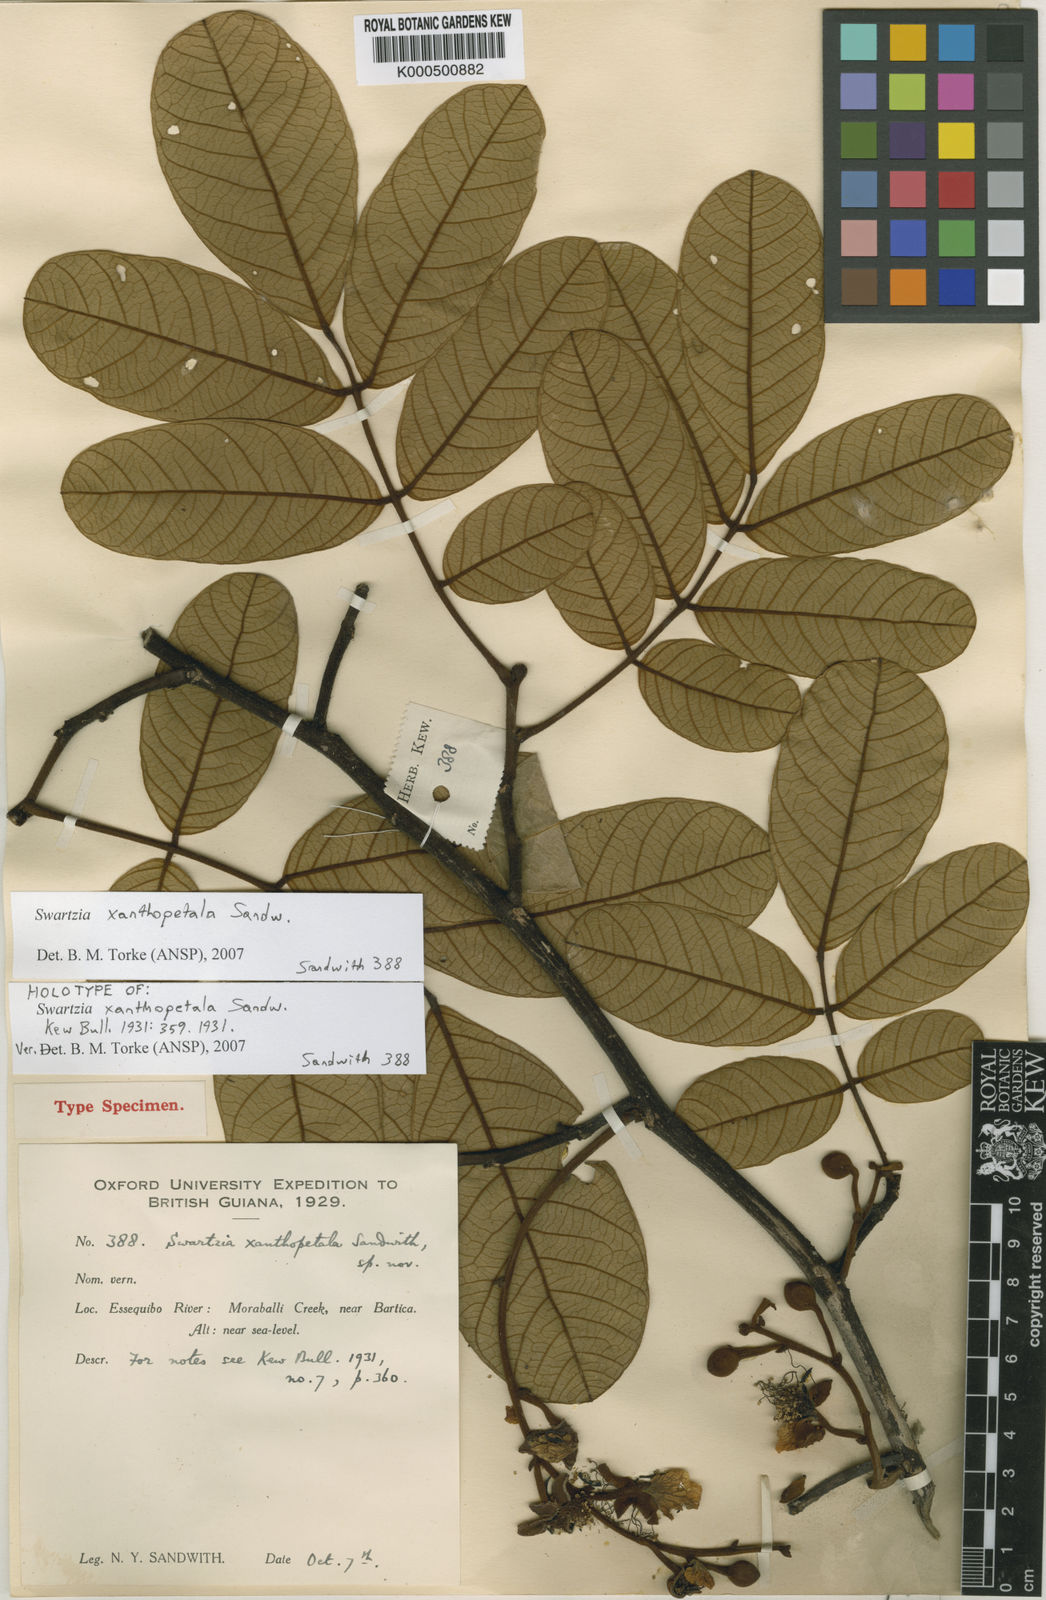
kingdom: Plantae
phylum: Tracheophyta
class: Magnoliopsida
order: Fabales
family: Fabaceae
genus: Swartzia
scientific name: Swartzia xanthopetala
